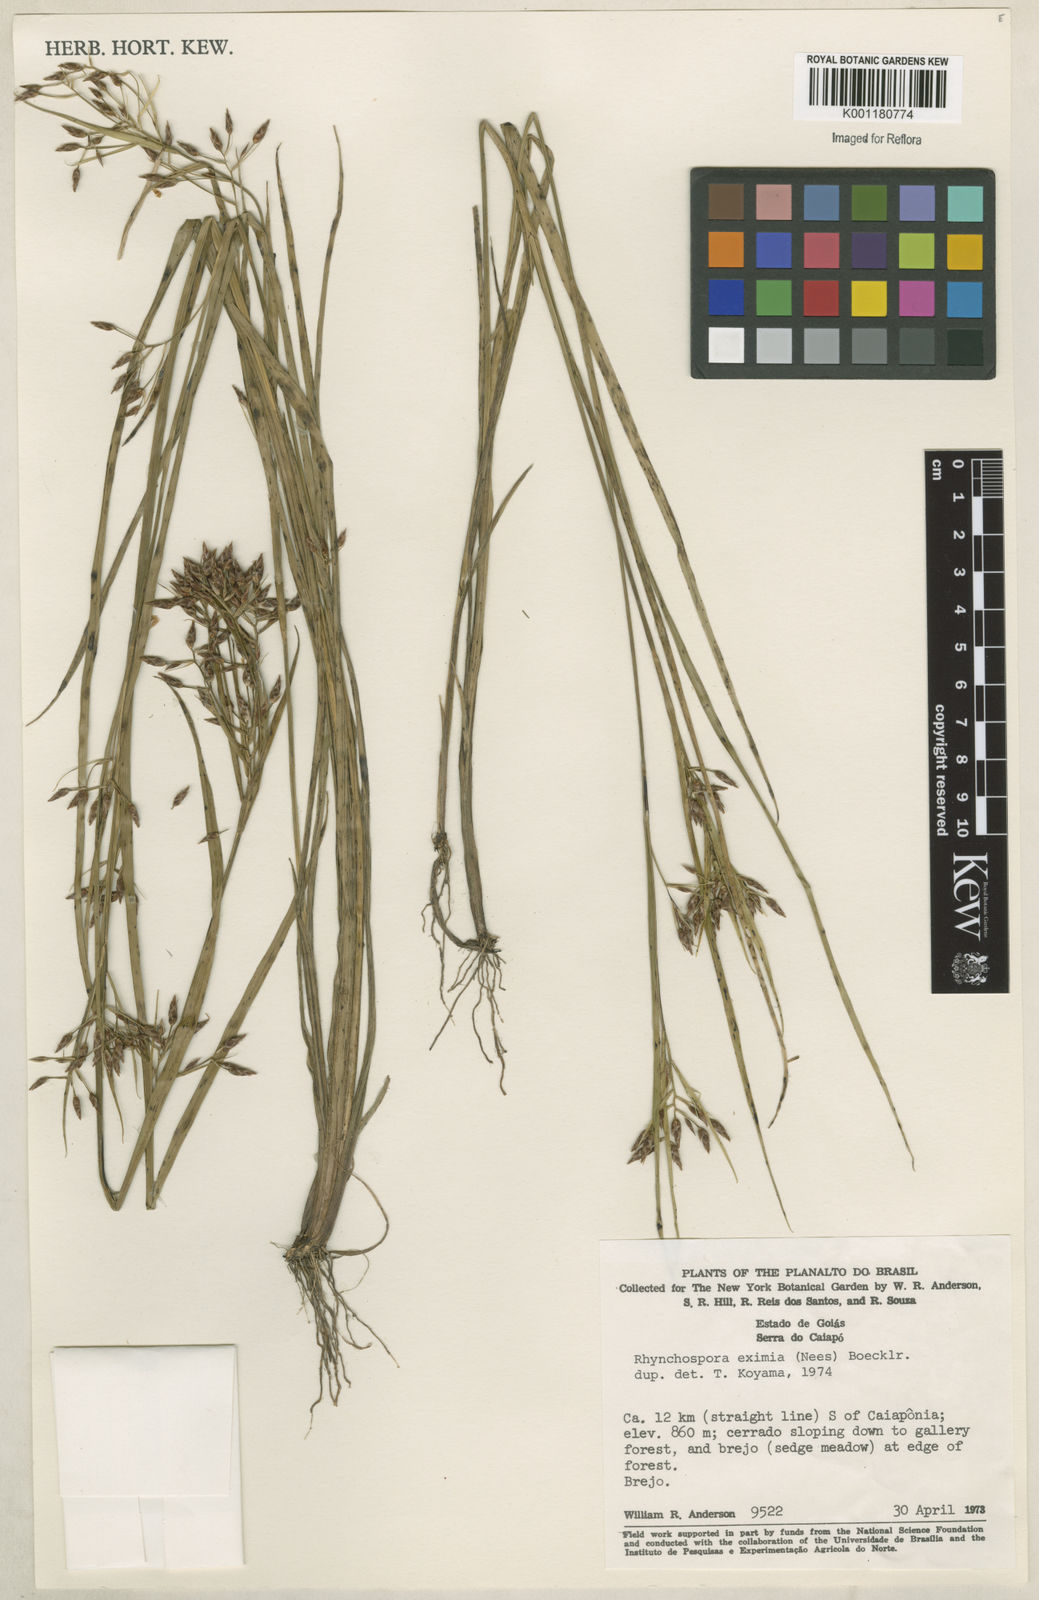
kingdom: Plantae
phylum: Tracheophyta
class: Liliopsida
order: Poales
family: Cyperaceae
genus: Rhynchospora
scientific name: Rhynchospora eximia
